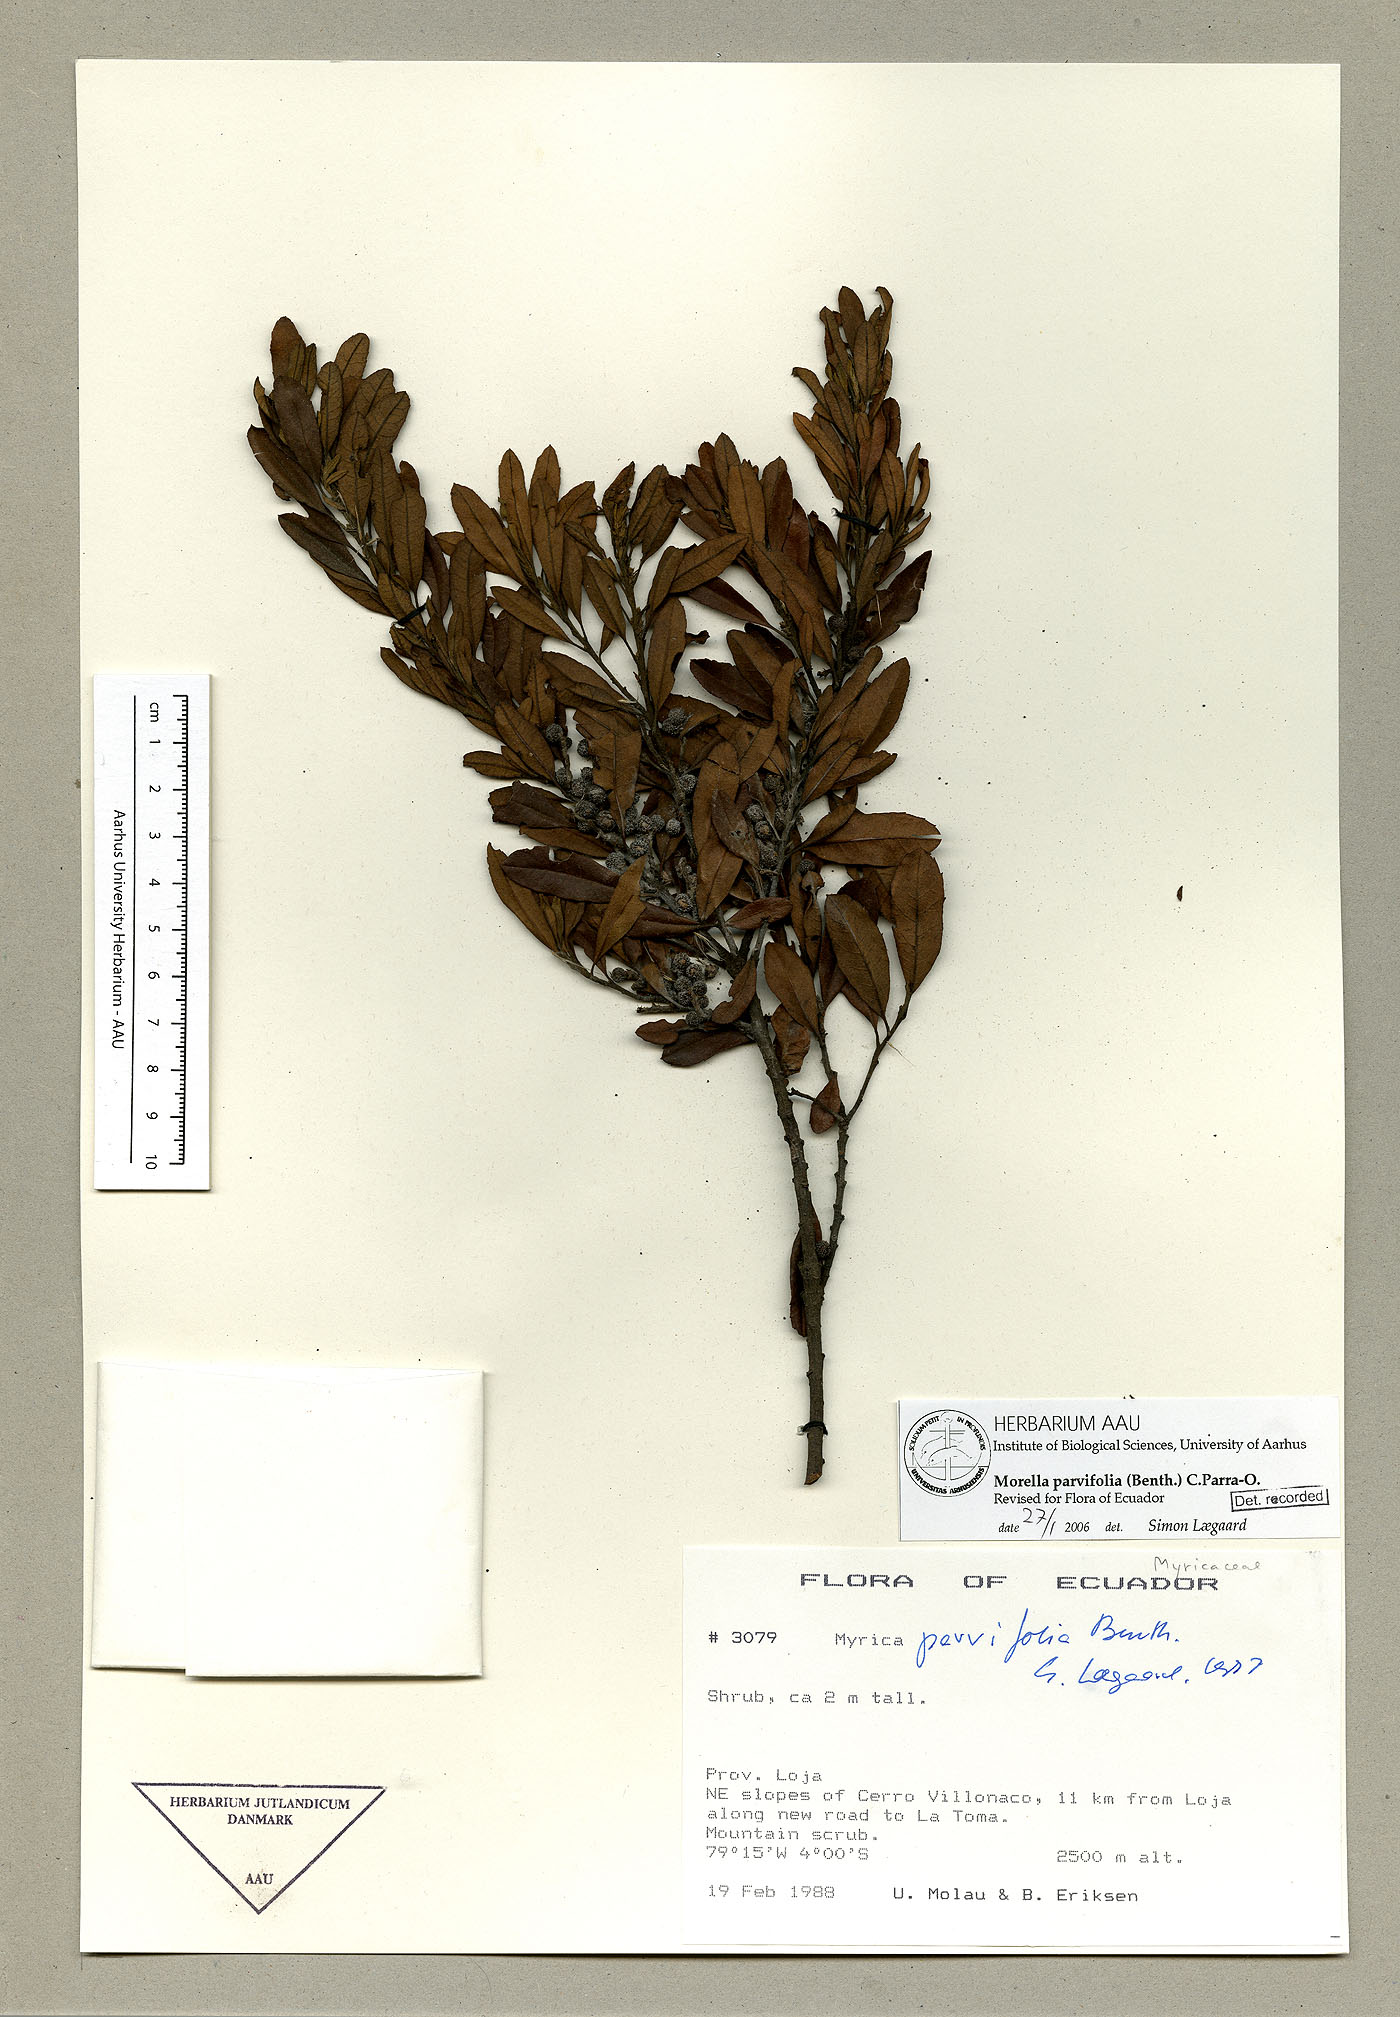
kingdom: Plantae
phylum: Tracheophyta
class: Magnoliopsida
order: Fagales
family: Myricaceae
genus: Morella
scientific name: Morella parvifolia
